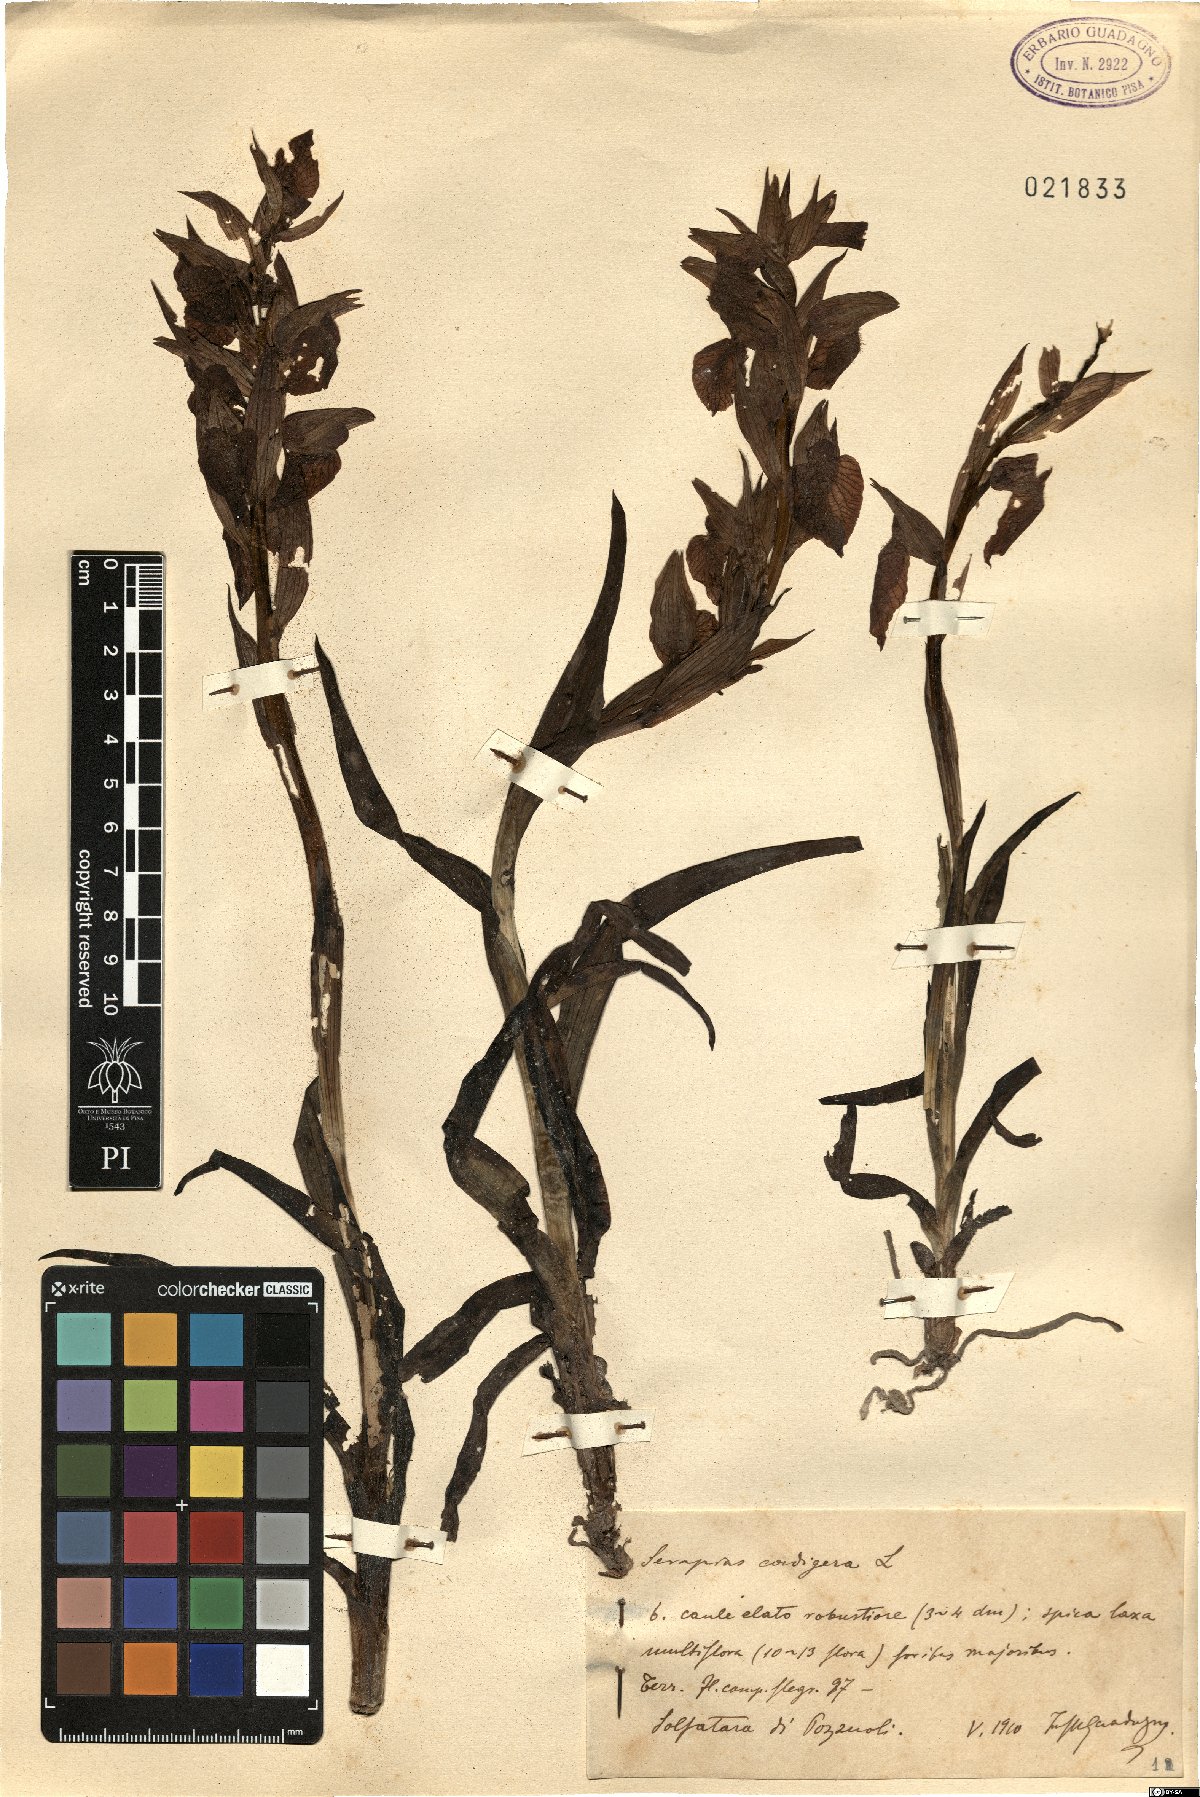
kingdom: Plantae
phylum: Tracheophyta
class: Liliopsida
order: Asparagales
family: Orchidaceae
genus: Serapias
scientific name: Serapias cordigera
